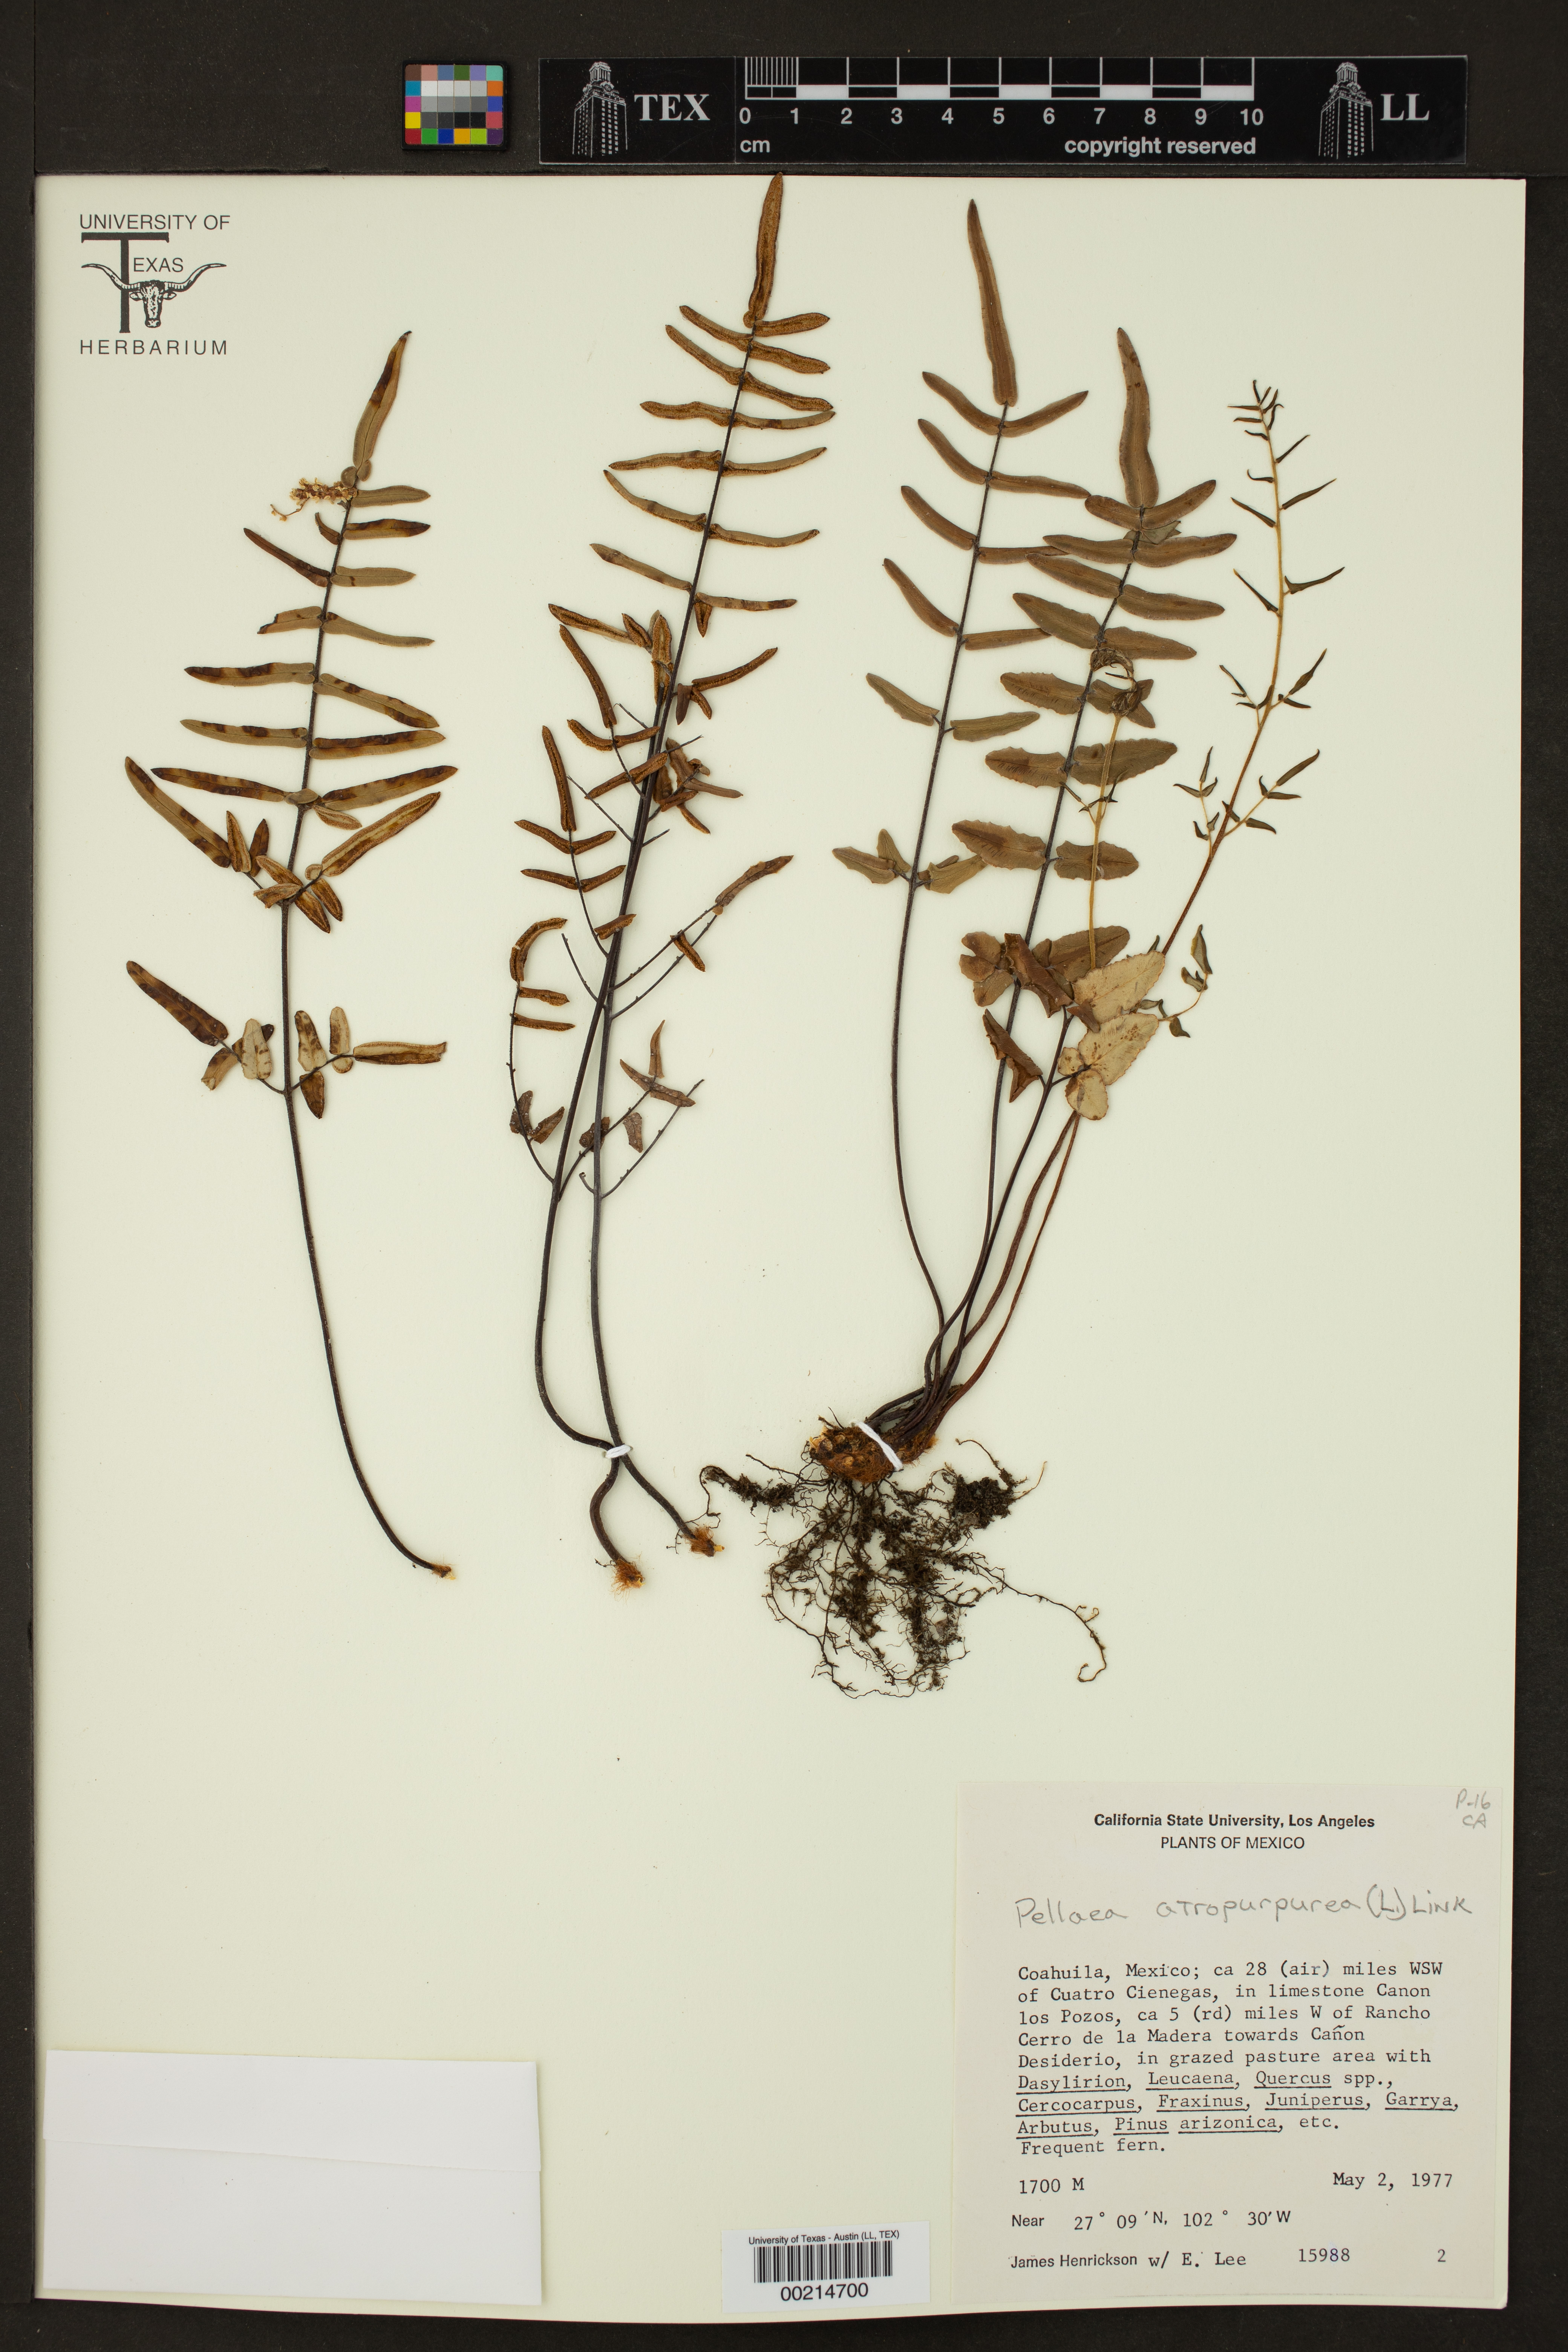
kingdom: Plantae
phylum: Tracheophyta
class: Polypodiopsida
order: Polypodiales
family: Pteridaceae
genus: Pellaea
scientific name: Pellaea atropurpurea
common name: Hairy cliffbrake
